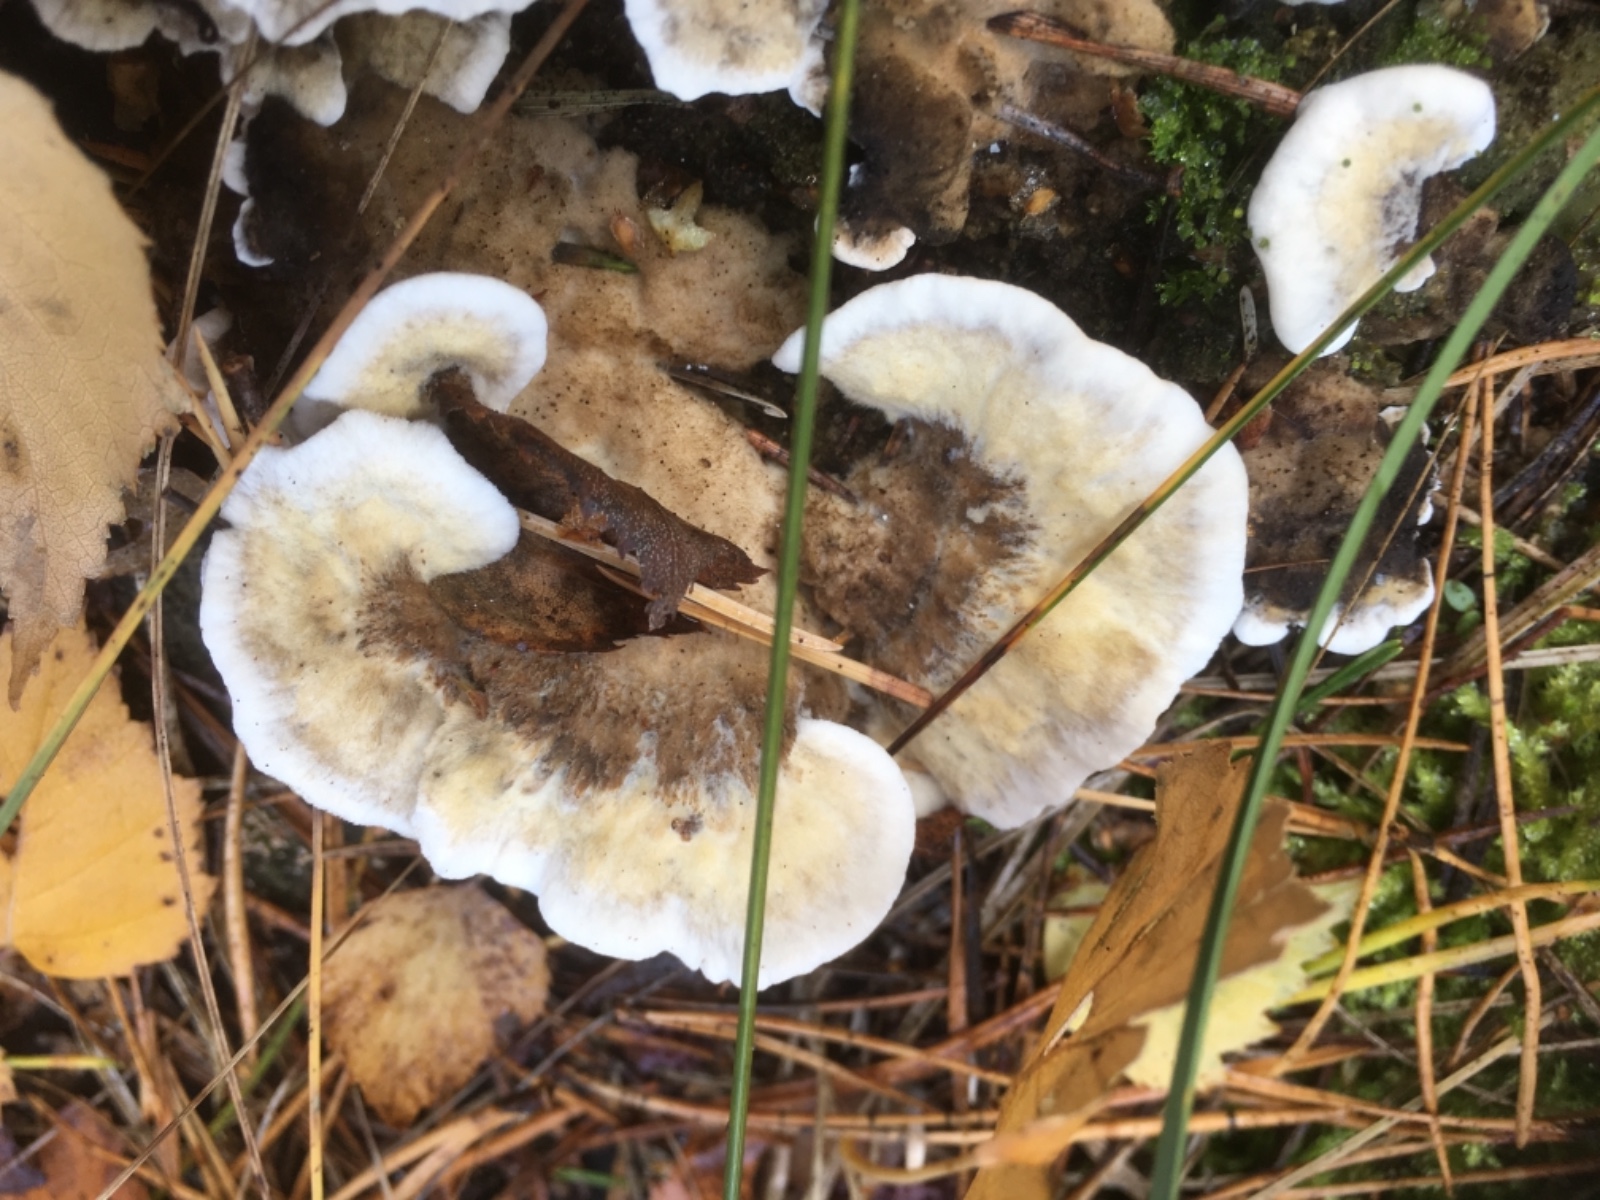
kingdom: Fungi
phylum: Basidiomycota
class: Agaricomycetes
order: Polyporales
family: Phanerochaetaceae
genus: Bjerkandera
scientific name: Bjerkandera adusta
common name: sveden sodporesvamp
